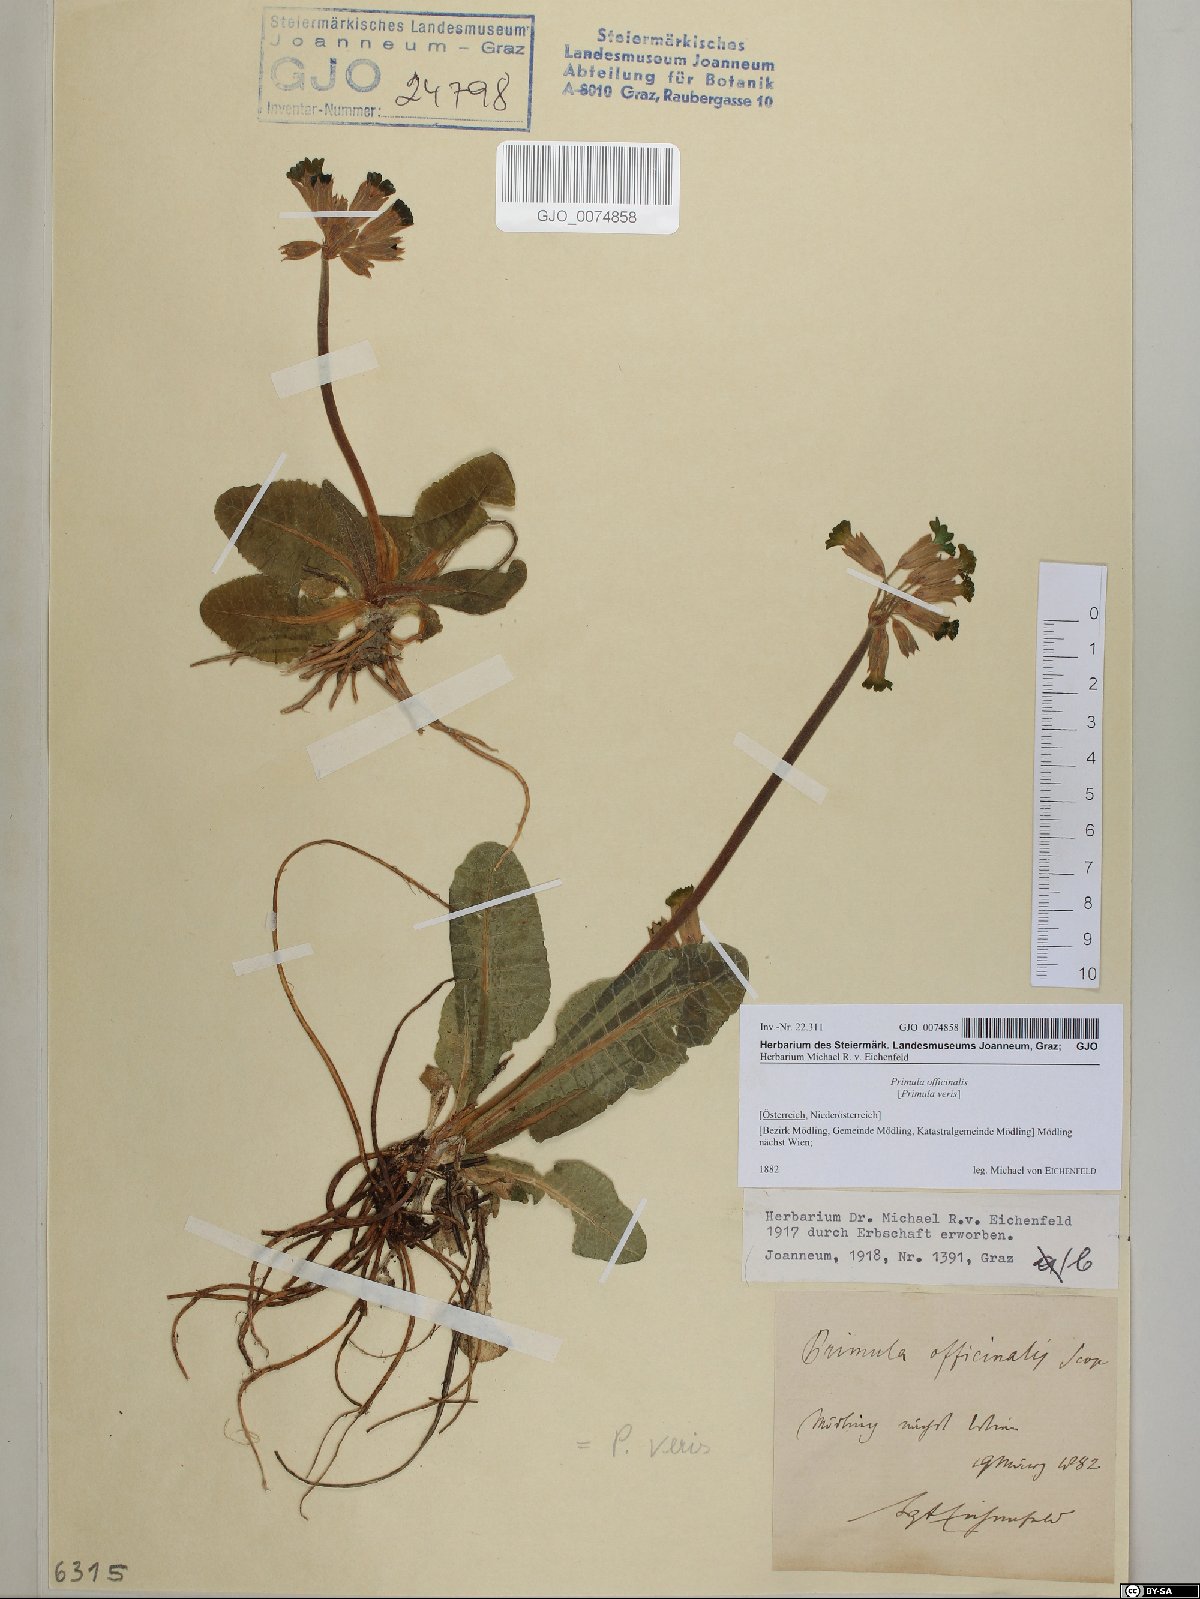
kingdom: Plantae
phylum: Tracheophyta
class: Magnoliopsida
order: Ericales
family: Primulaceae
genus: Primula
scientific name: Primula veris
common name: Cowslip
